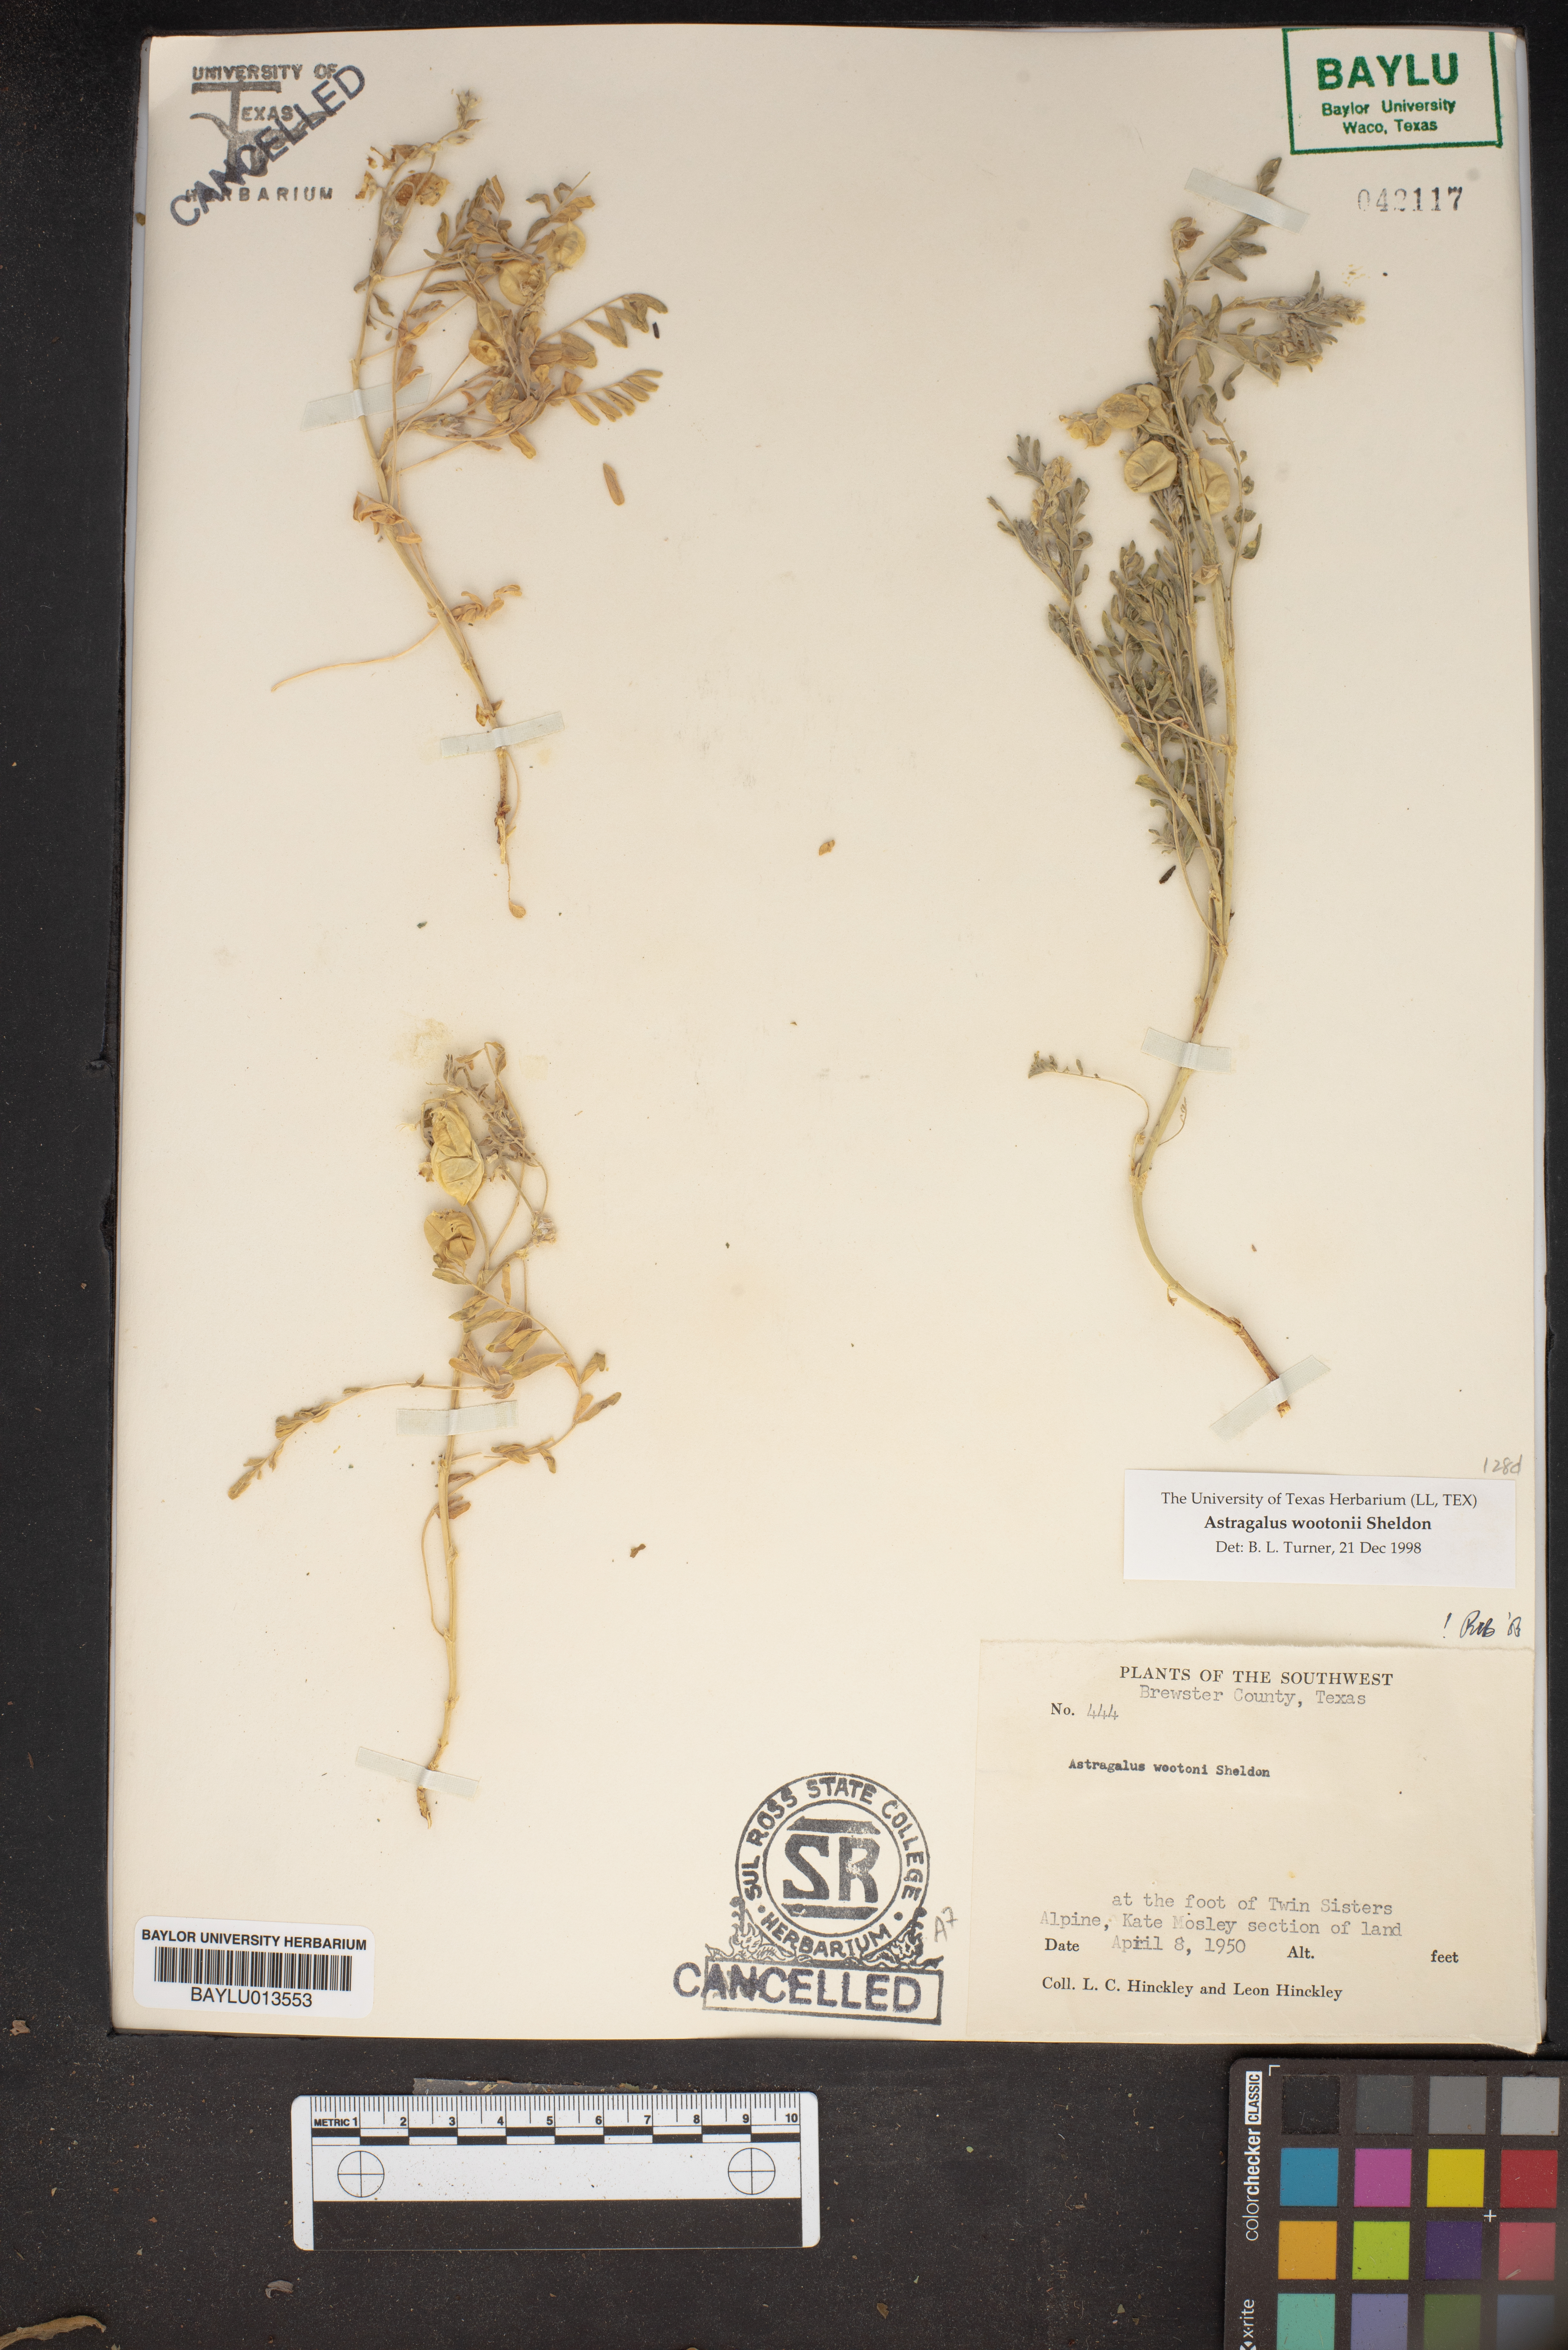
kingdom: Plantae
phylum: Tracheophyta
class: Magnoliopsida
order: Fabales
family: Fabaceae
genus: Astragalus
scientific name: Astragalus wootonii
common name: Wooton's milk-vetch
